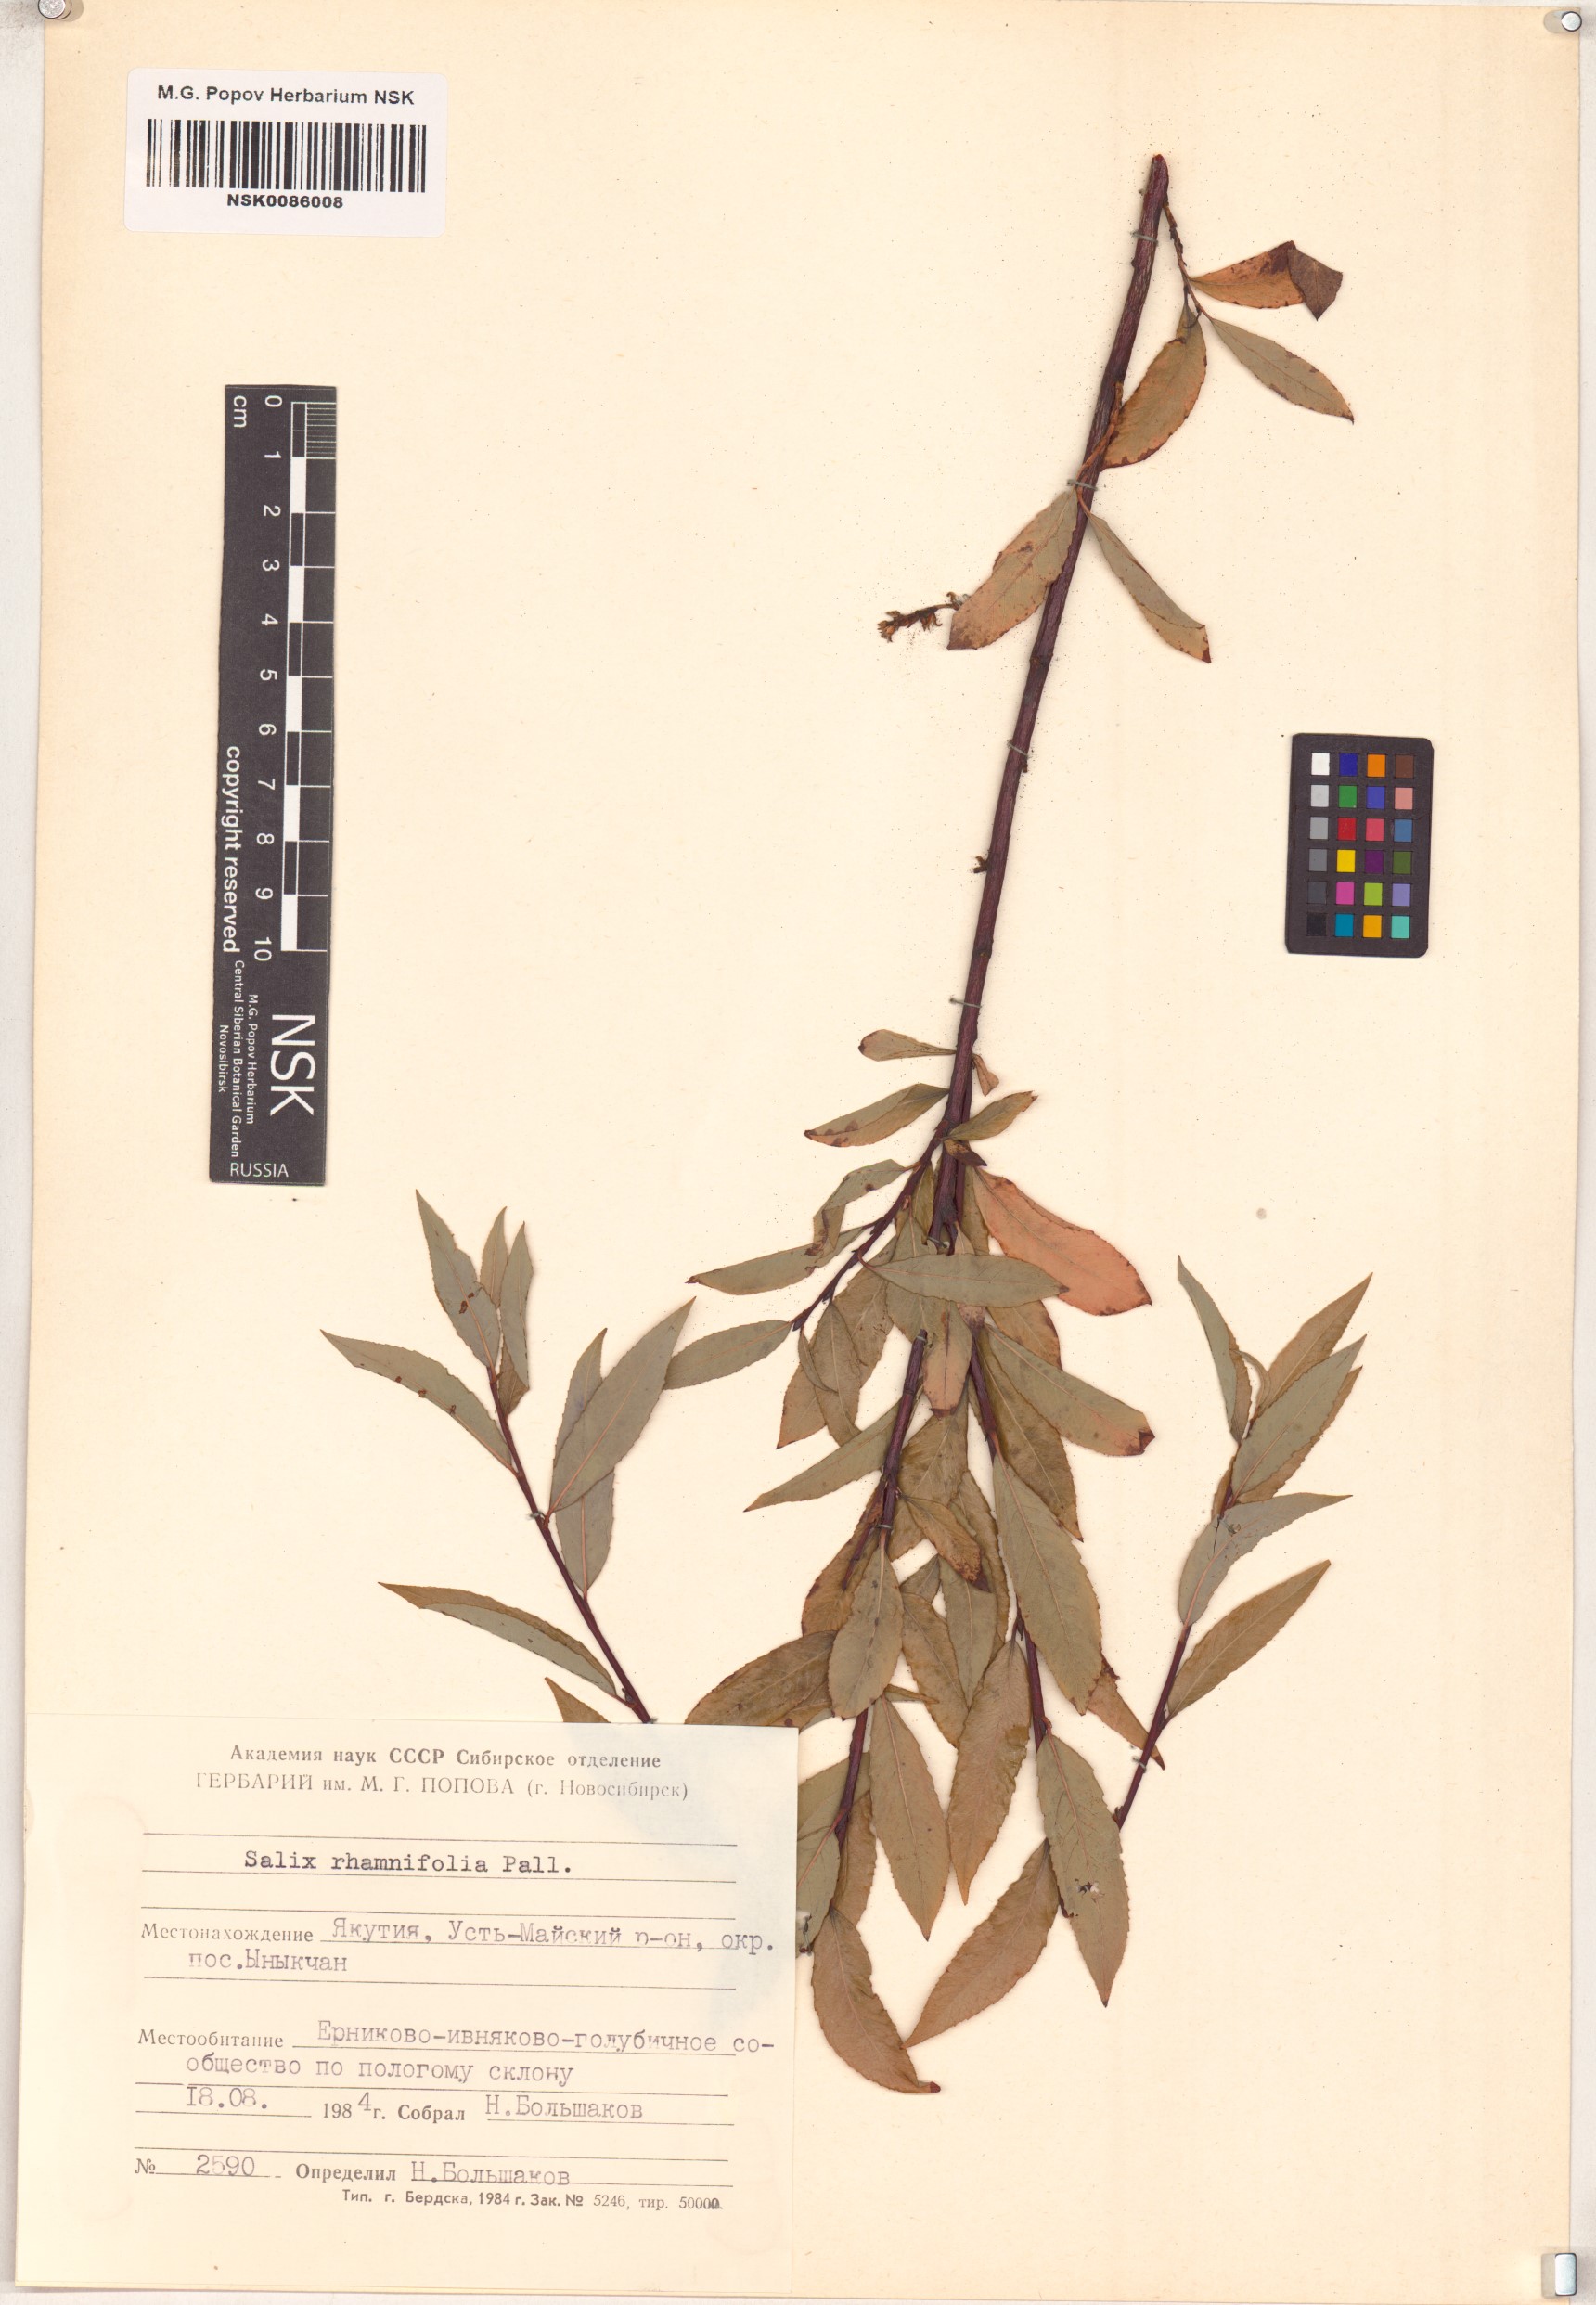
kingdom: Plantae
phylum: Tracheophyta
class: Magnoliopsida
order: Malpighiales
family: Salicaceae
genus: Salix
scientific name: Salix rhamnifolia
